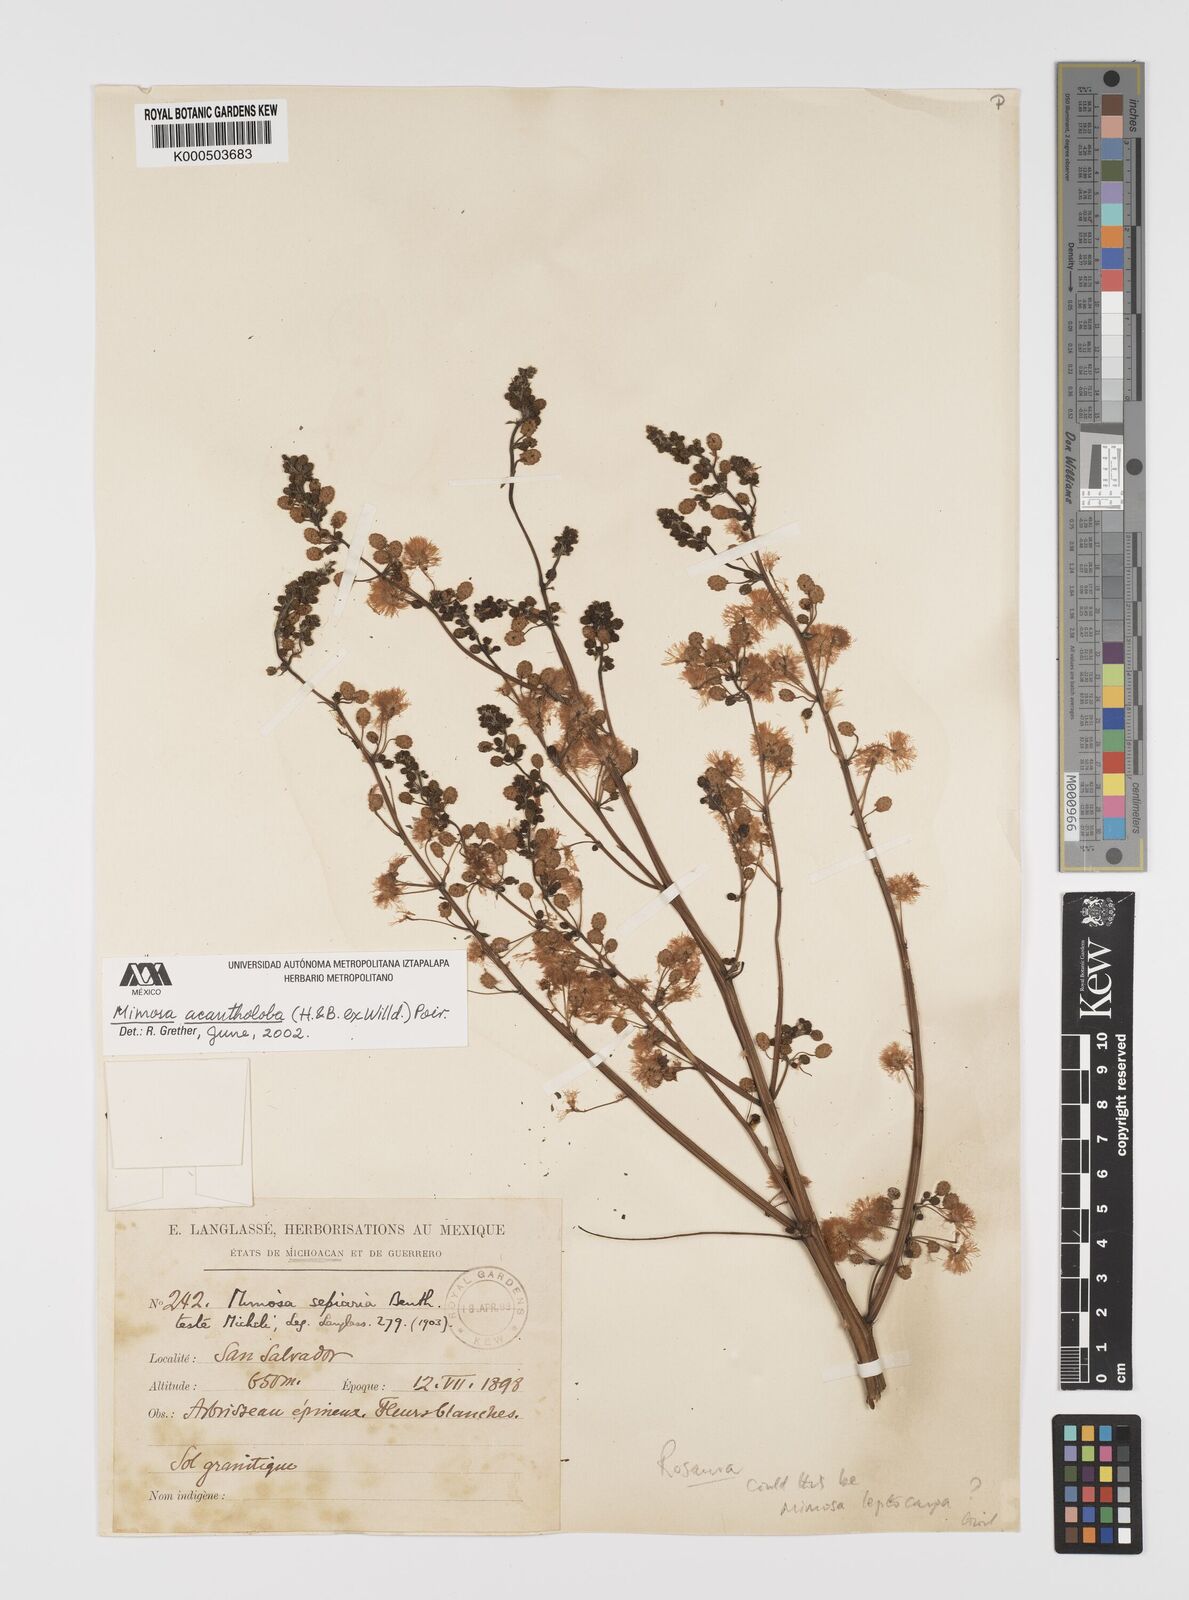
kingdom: Plantae
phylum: Tracheophyta
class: Magnoliopsida
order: Fabales
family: Fabaceae
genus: Mimosa
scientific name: Mimosa acantholoba
